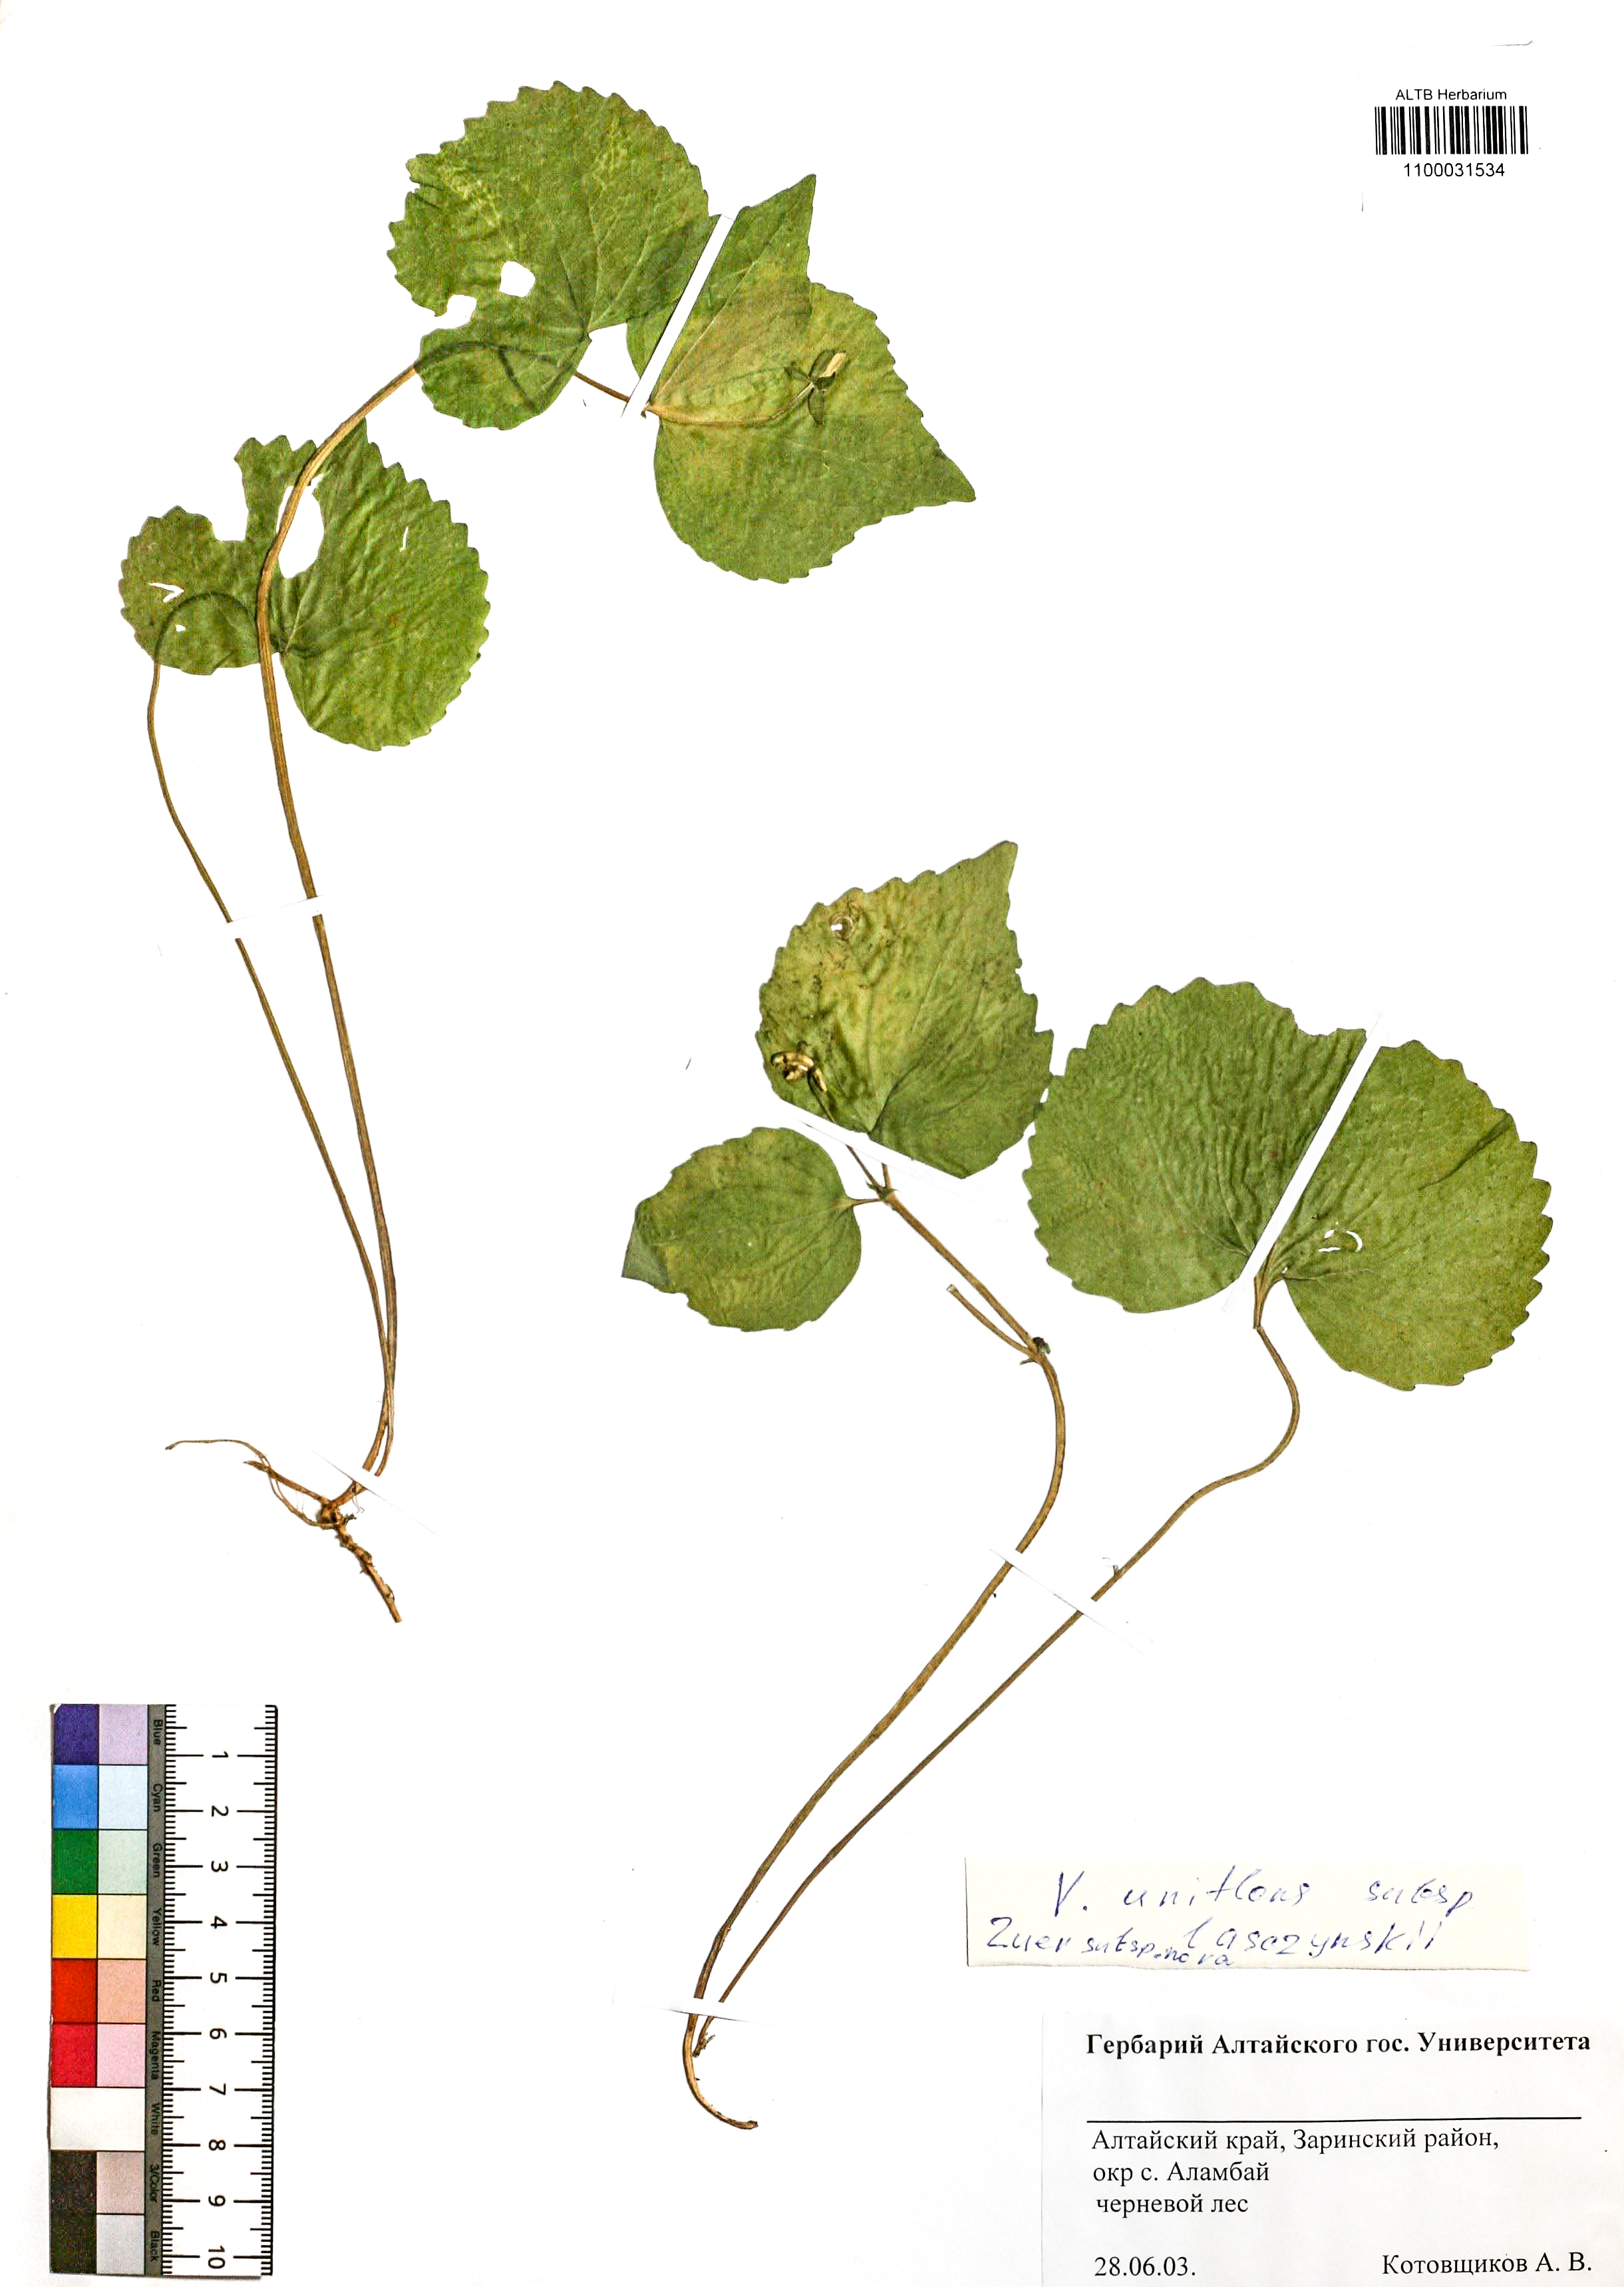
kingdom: Plantae
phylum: Tracheophyta
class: Magnoliopsida
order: Malpighiales
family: Violaceae
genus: Viola
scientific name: Viola uniflora
